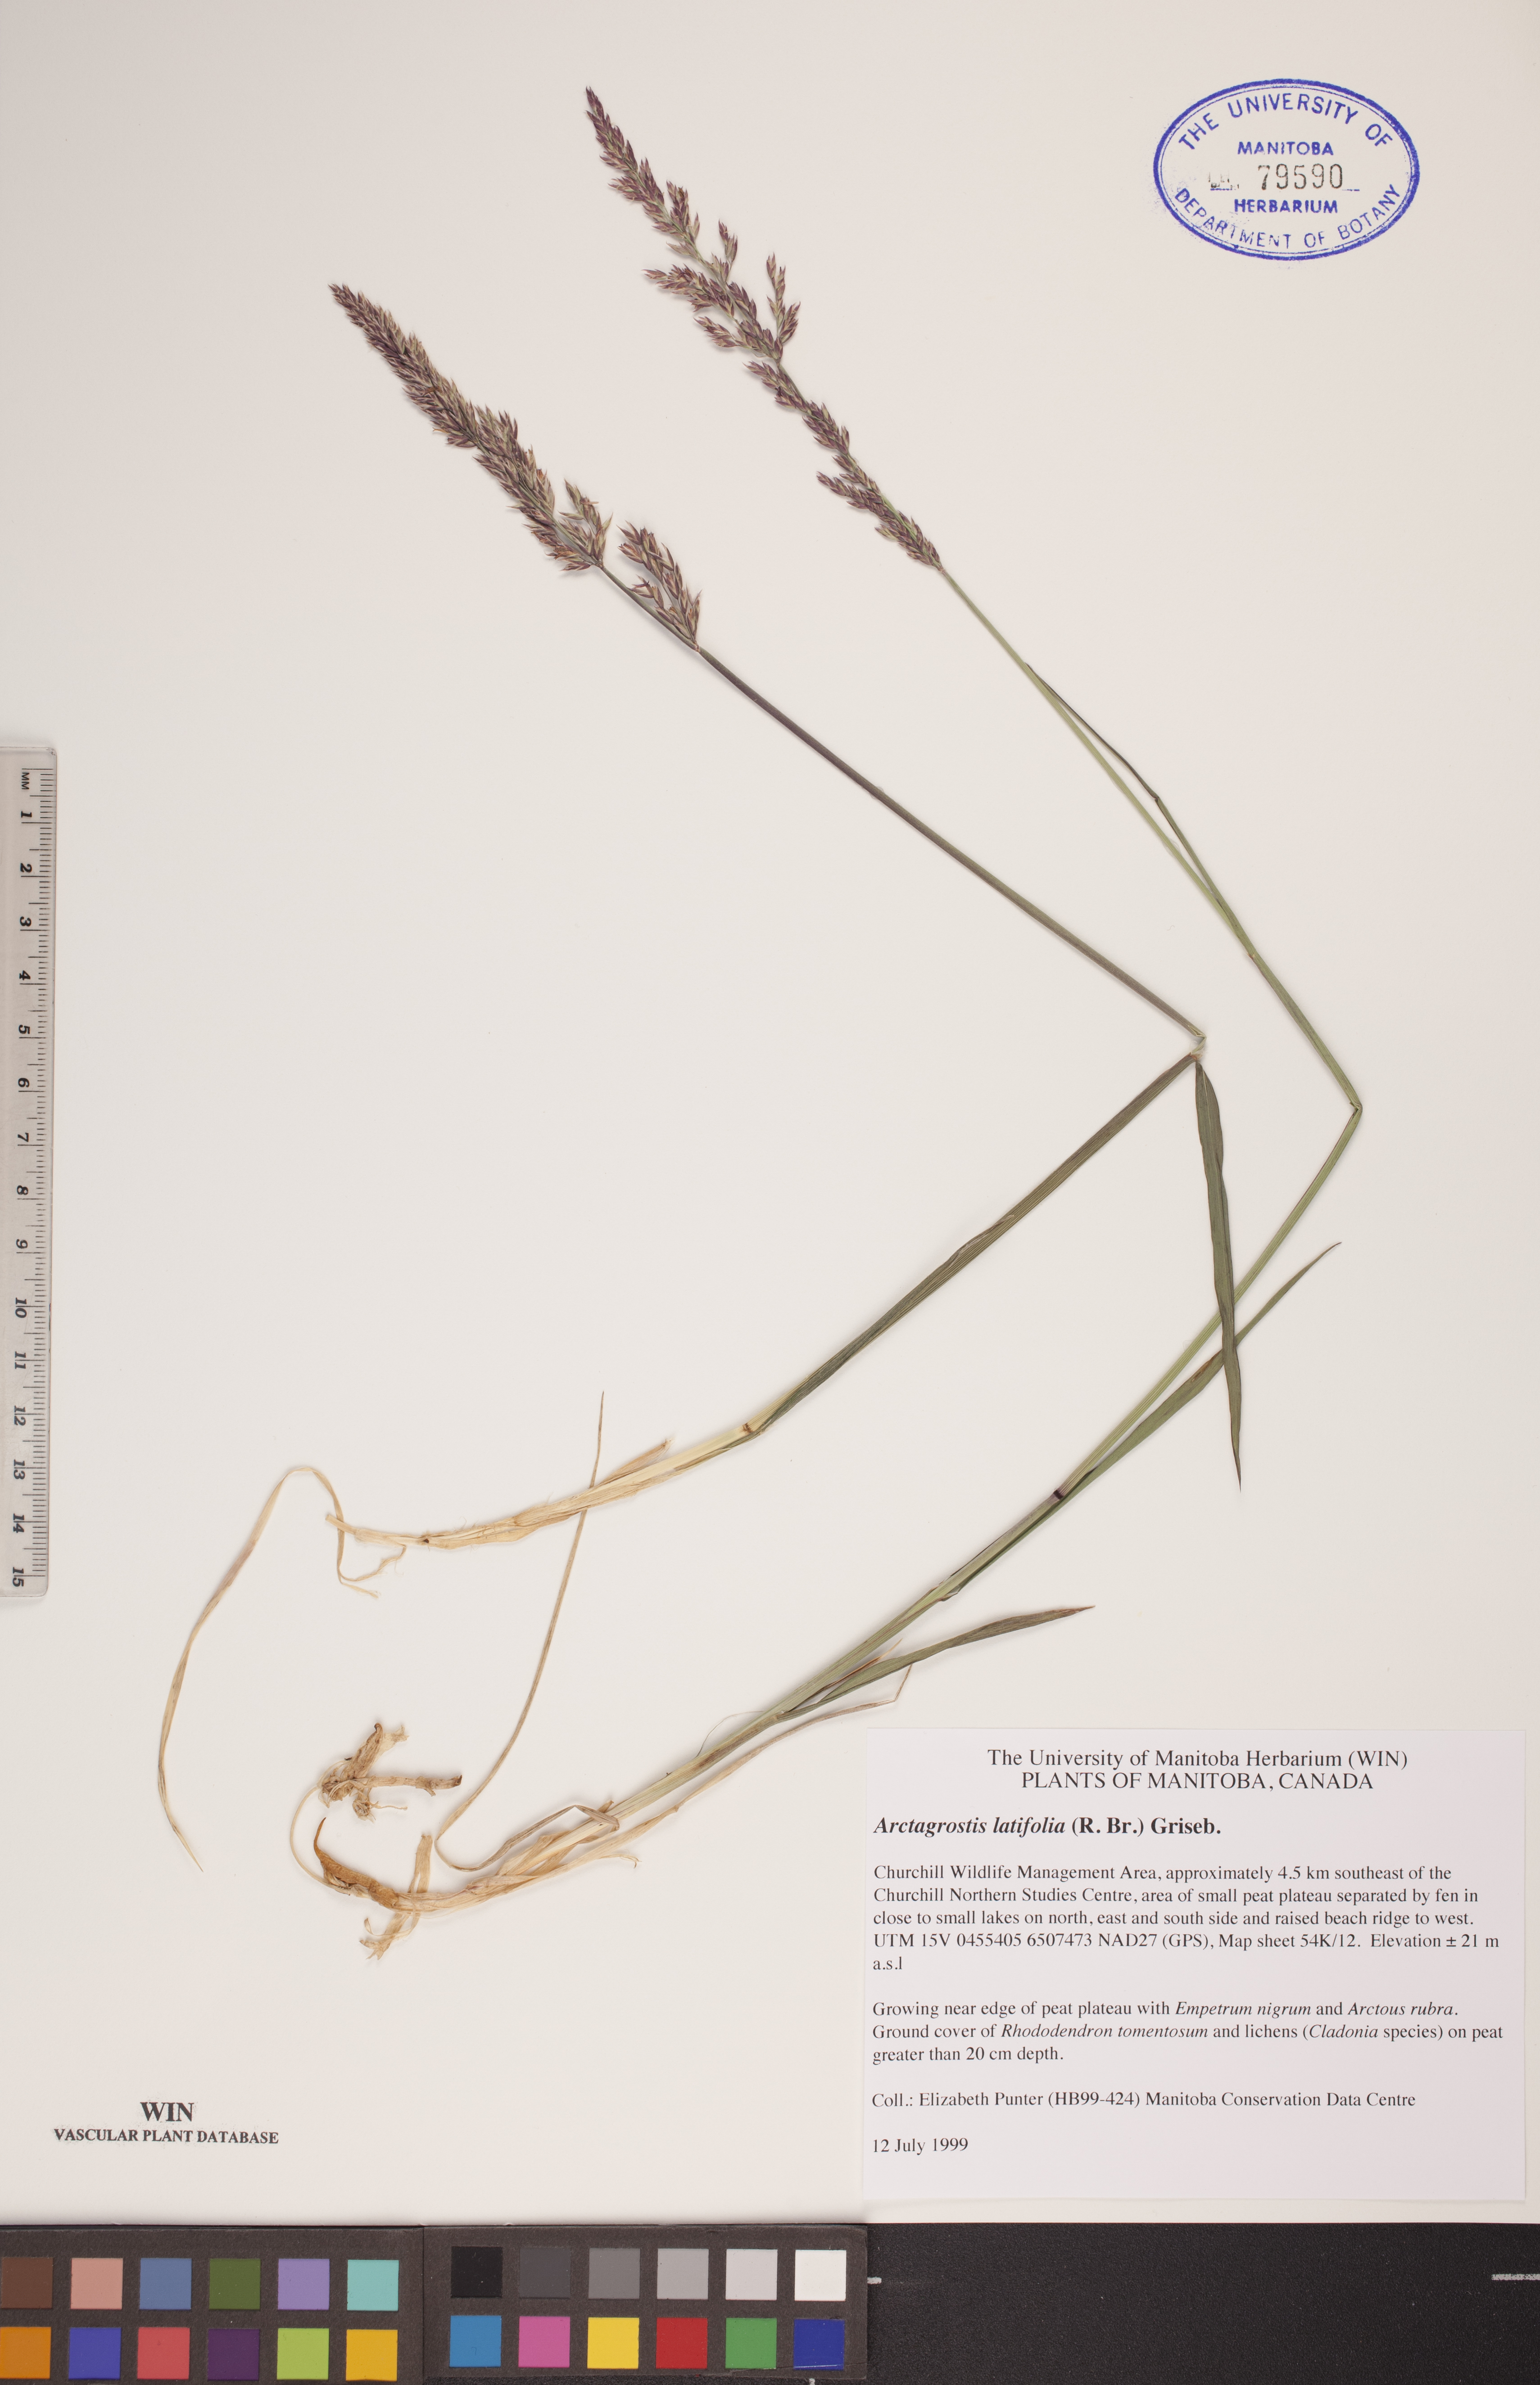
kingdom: Plantae
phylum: Tracheophyta
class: Liliopsida
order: Poales
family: Poaceae
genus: Arctagrostis
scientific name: Arctagrostis latifolia
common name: Arctic grass
